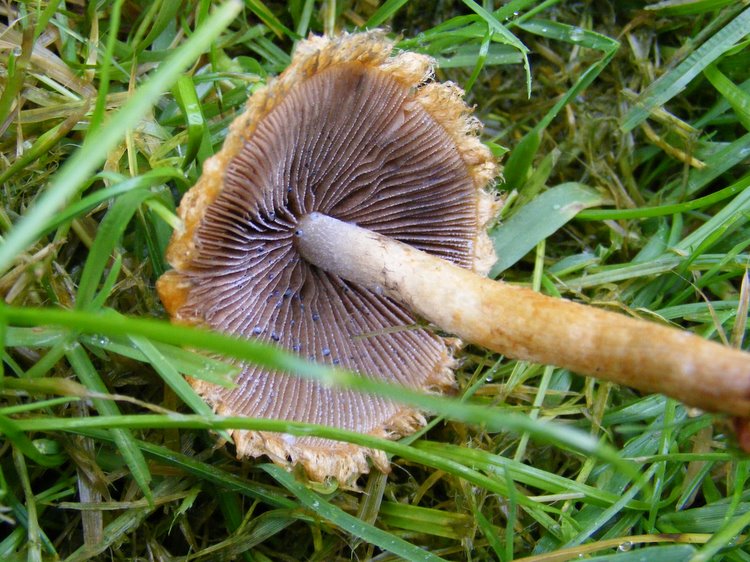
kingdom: Fungi
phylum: Basidiomycota
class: Agaricomycetes
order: Agaricales
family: Psathyrellaceae
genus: Lacrymaria
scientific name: Lacrymaria lacrymabunda
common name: grædende mørkhat
